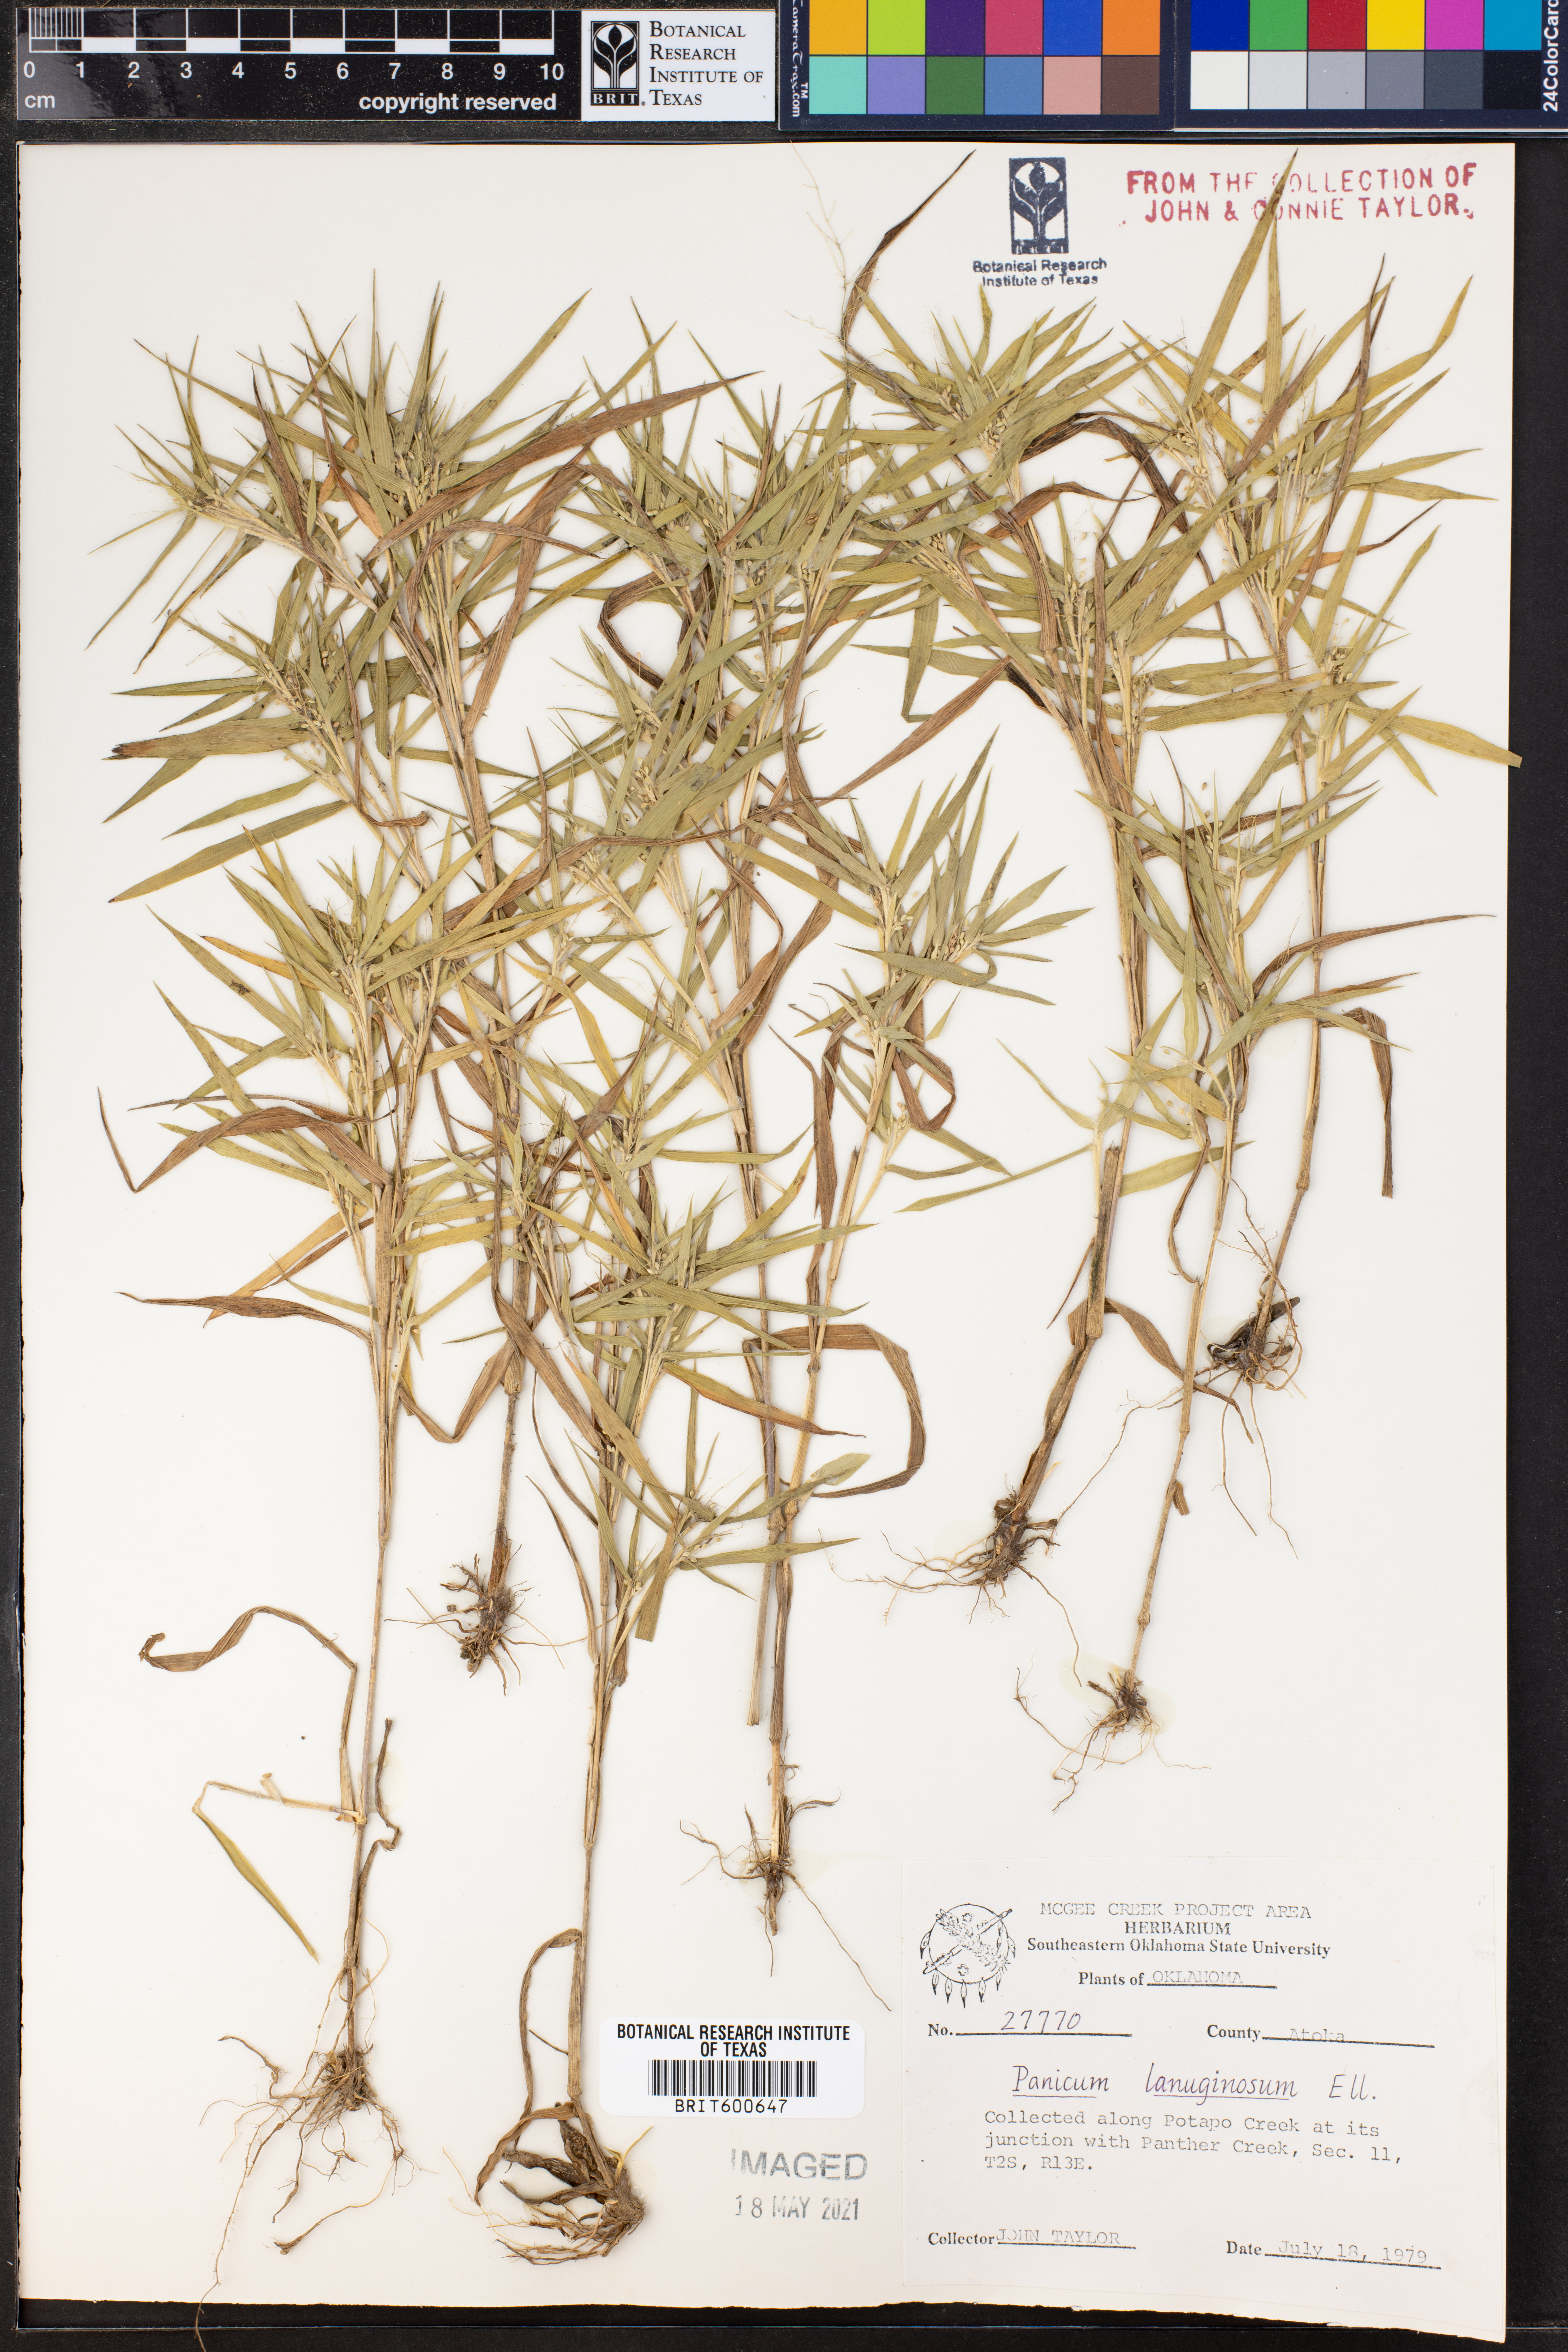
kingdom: Plantae
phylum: Tracheophyta
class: Liliopsida
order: Poales
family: Poaceae
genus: Dichanthelium
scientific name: Dichanthelium lanuginosum
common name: Woolly panicgrass
